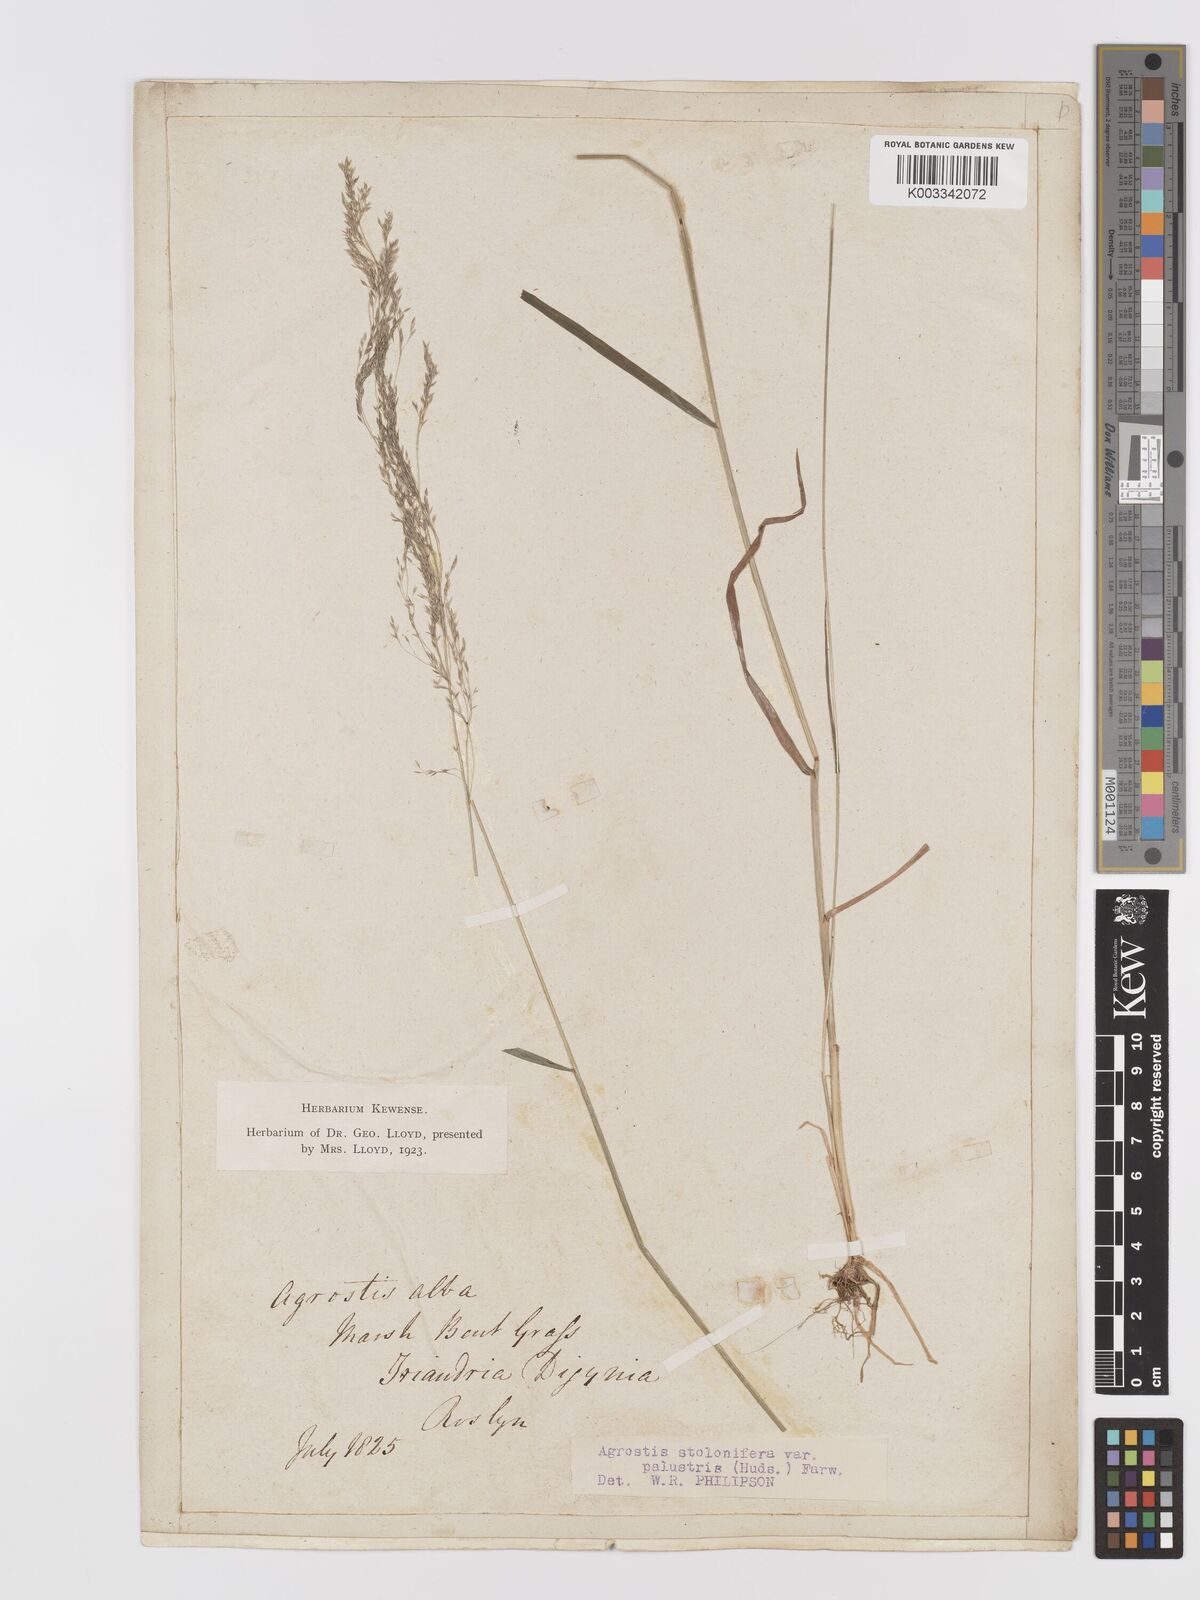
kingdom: Plantae
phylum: Tracheophyta
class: Liliopsida
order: Poales
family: Poaceae
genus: Agrostis
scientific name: Agrostis stolonifera
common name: Creeping bentgrass
